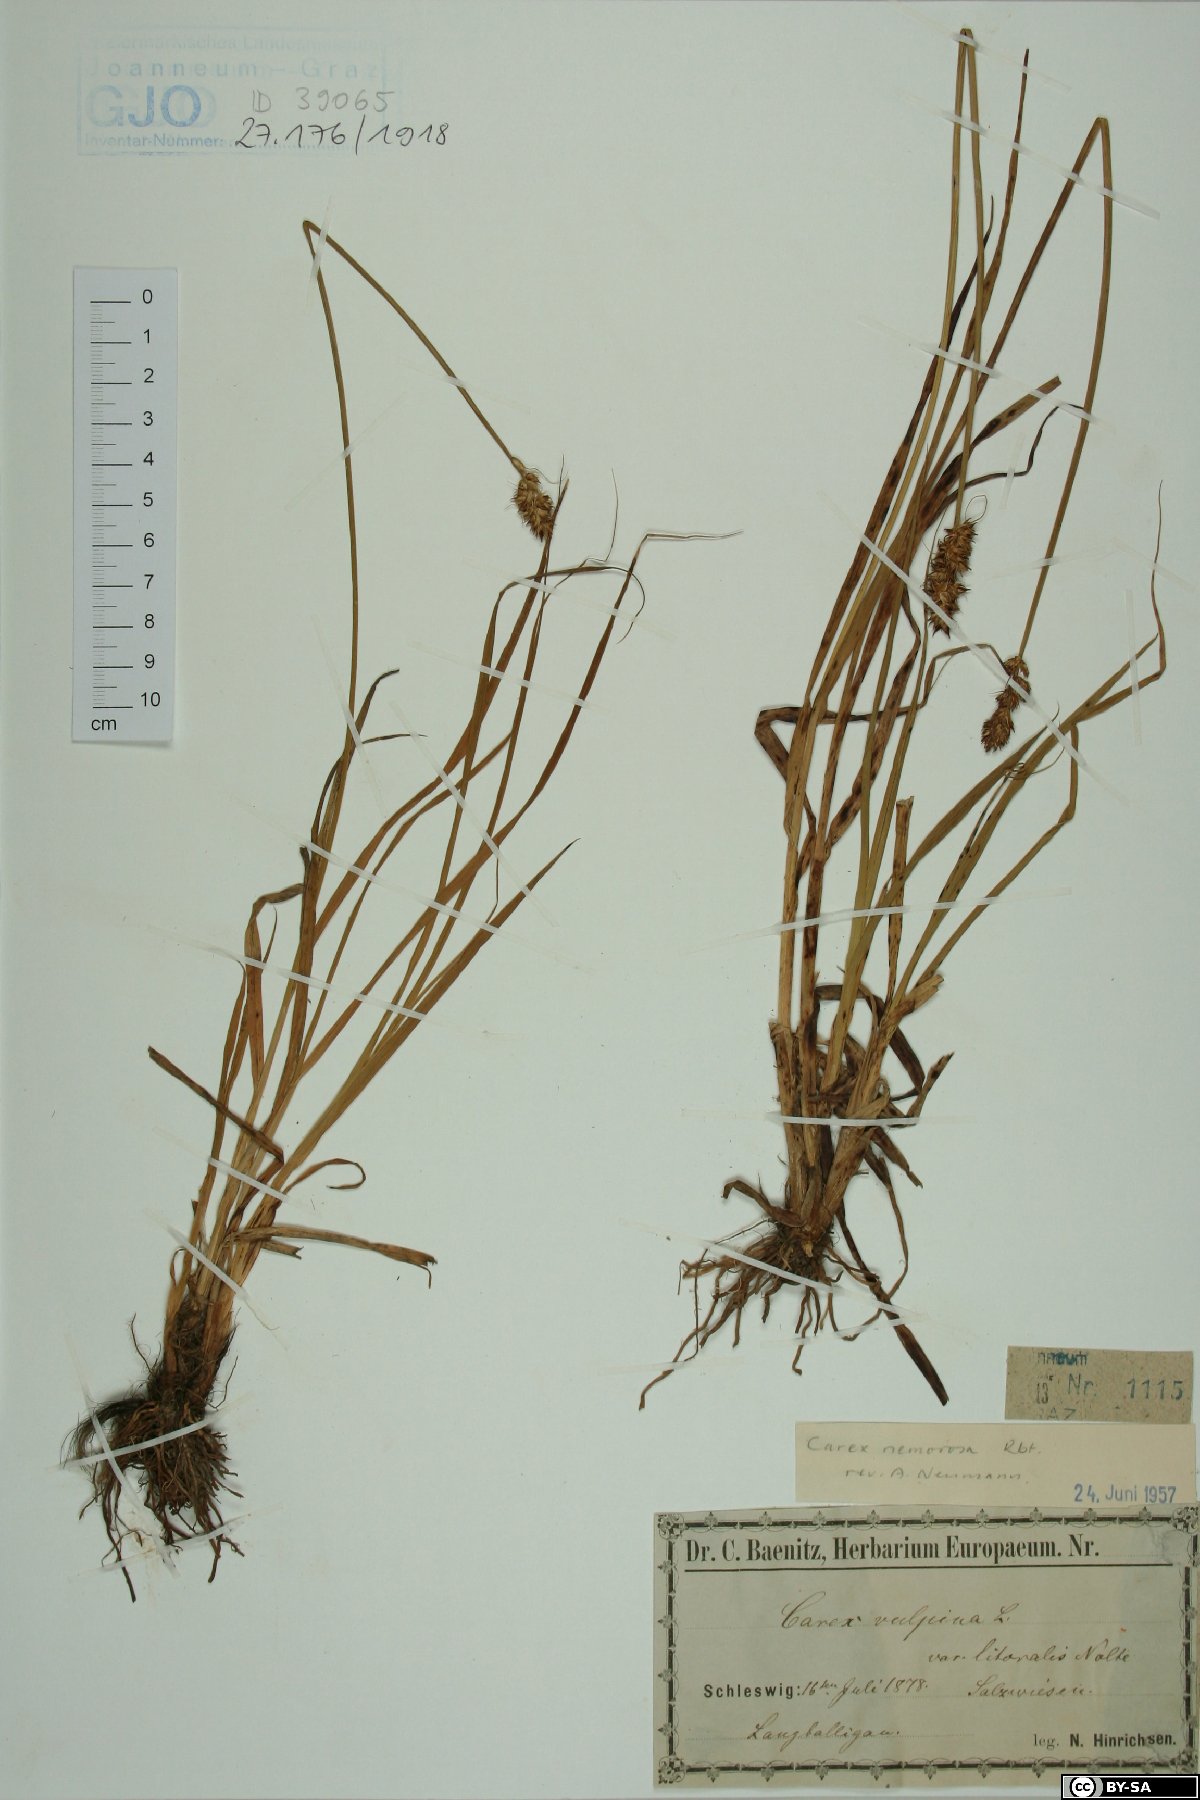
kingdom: Plantae
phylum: Tracheophyta
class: Liliopsida
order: Poales
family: Cyperaceae
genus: Carex
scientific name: Carex otrubae
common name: False fox-sedge
